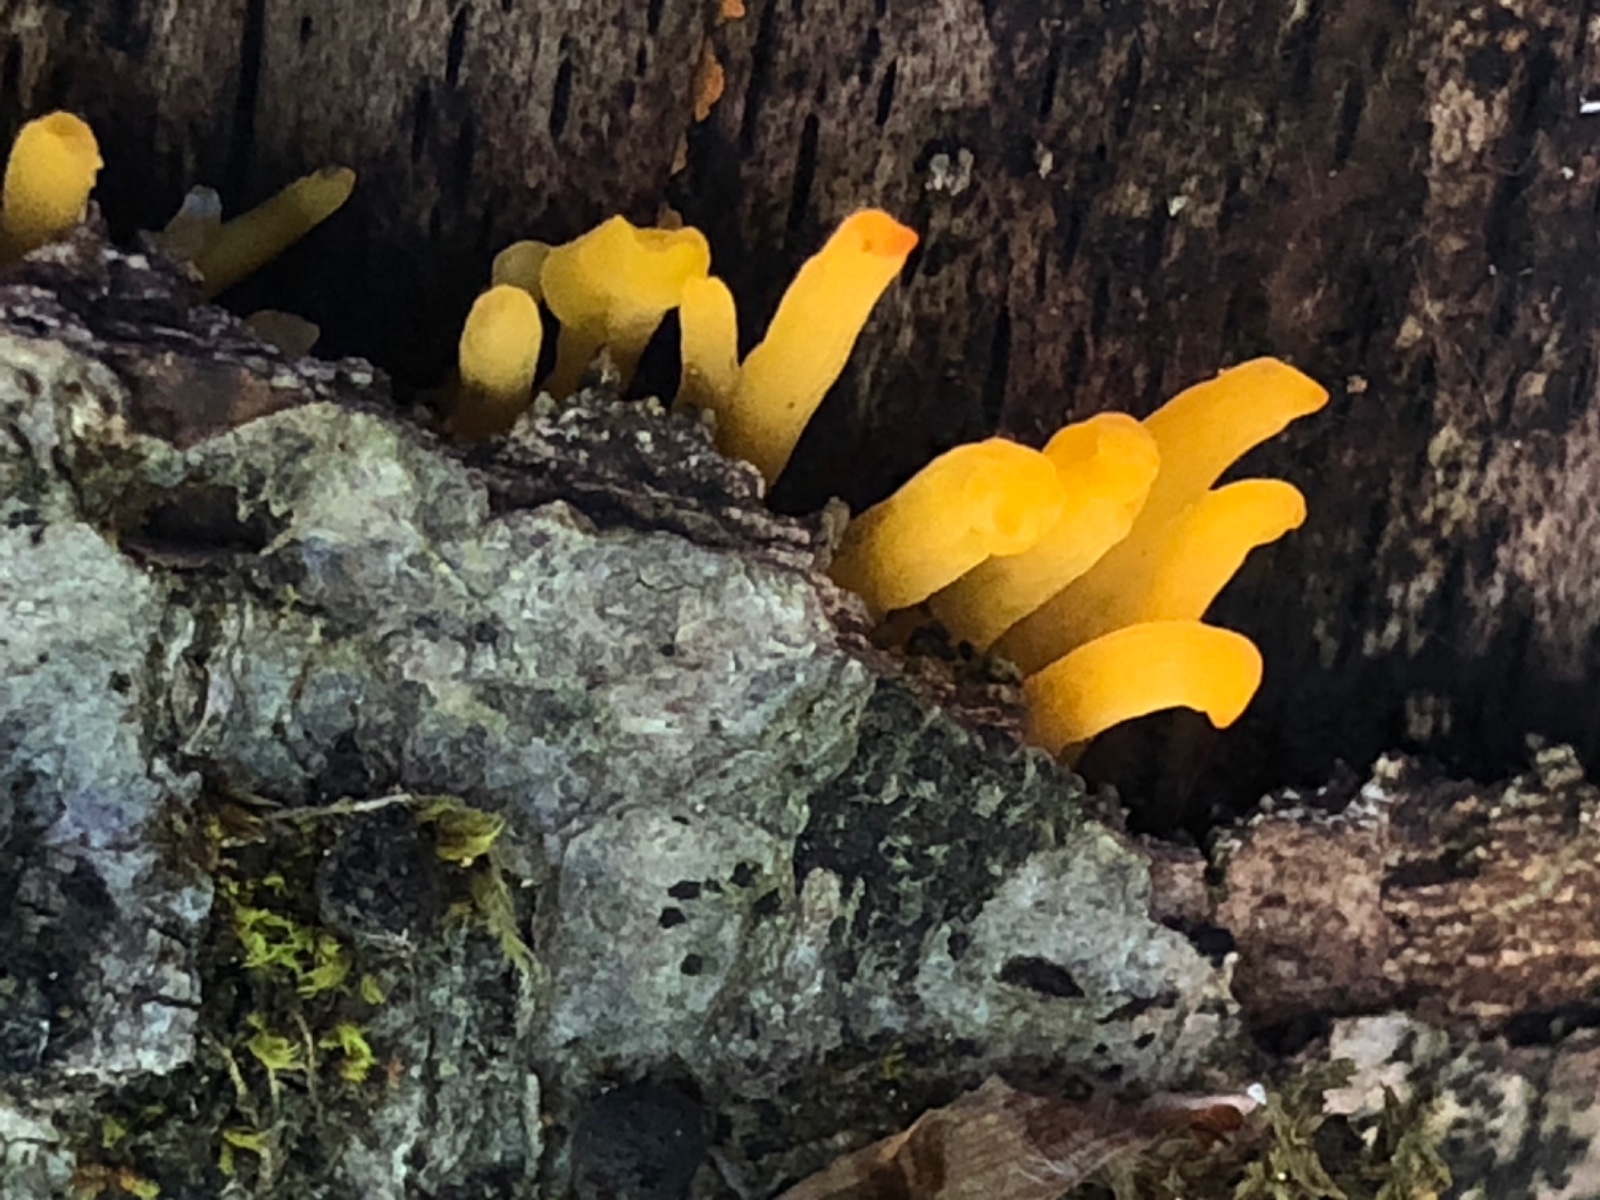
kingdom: Fungi
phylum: Basidiomycota
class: Dacrymycetes
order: Dacrymycetales
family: Dacrymycetaceae
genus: Calocera
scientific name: Calocera cornea
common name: liden guldgaffel
